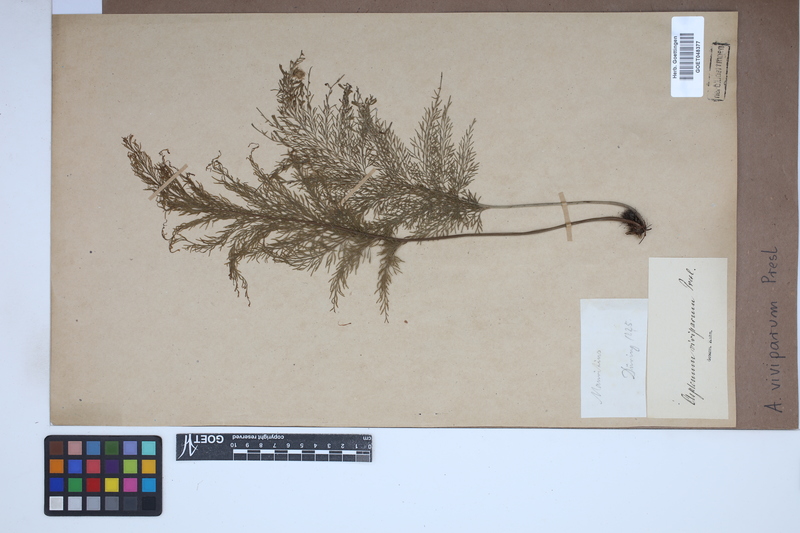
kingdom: Plantae
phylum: Tracheophyta
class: Polypodiopsida
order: Polypodiales
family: Aspleniaceae
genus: Asplenium
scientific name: Asplenium daucifolium
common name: Mauritius spleenwort
